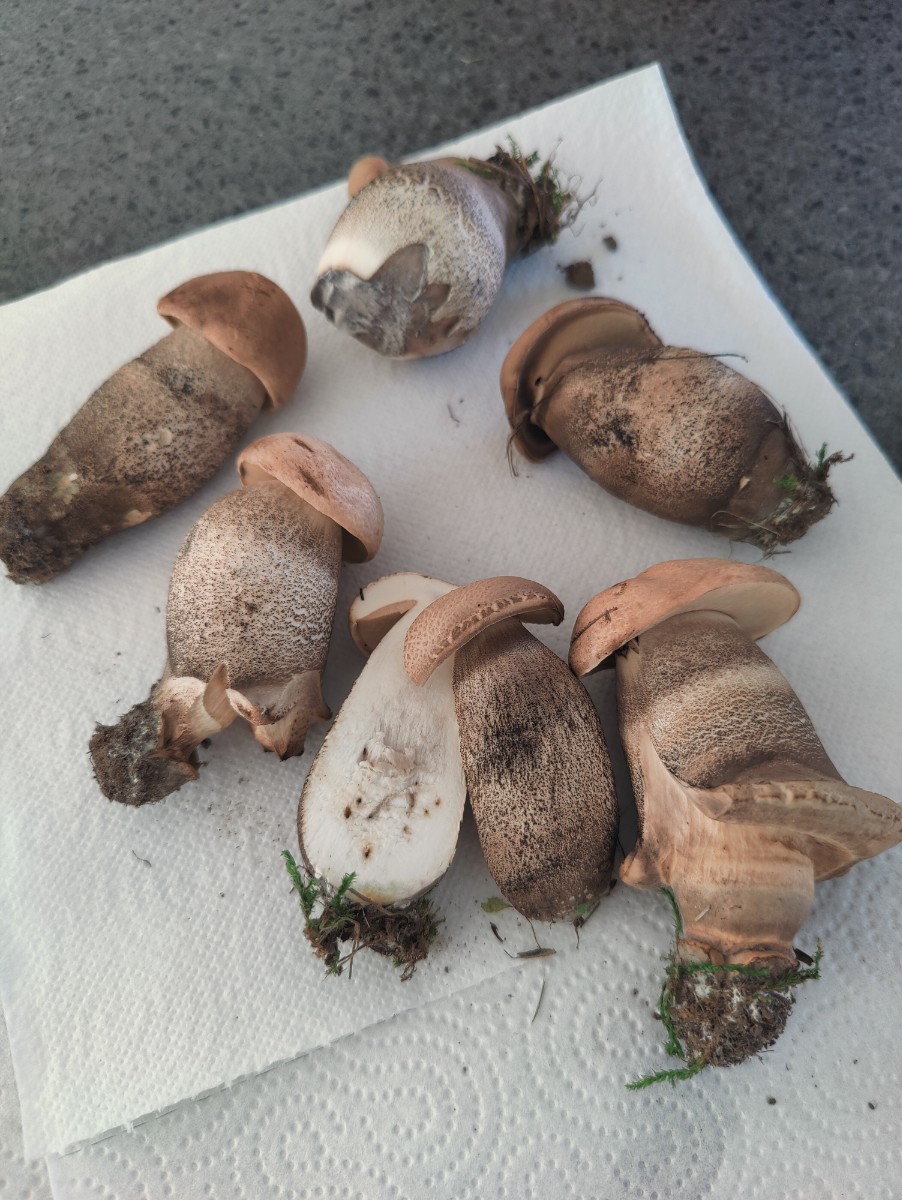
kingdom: Fungi
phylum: Basidiomycota
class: Agaricomycetes
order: Boletales
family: Boletaceae
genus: Leccinum
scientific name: Leccinum duriusculum
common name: poppel-skælrørhat
